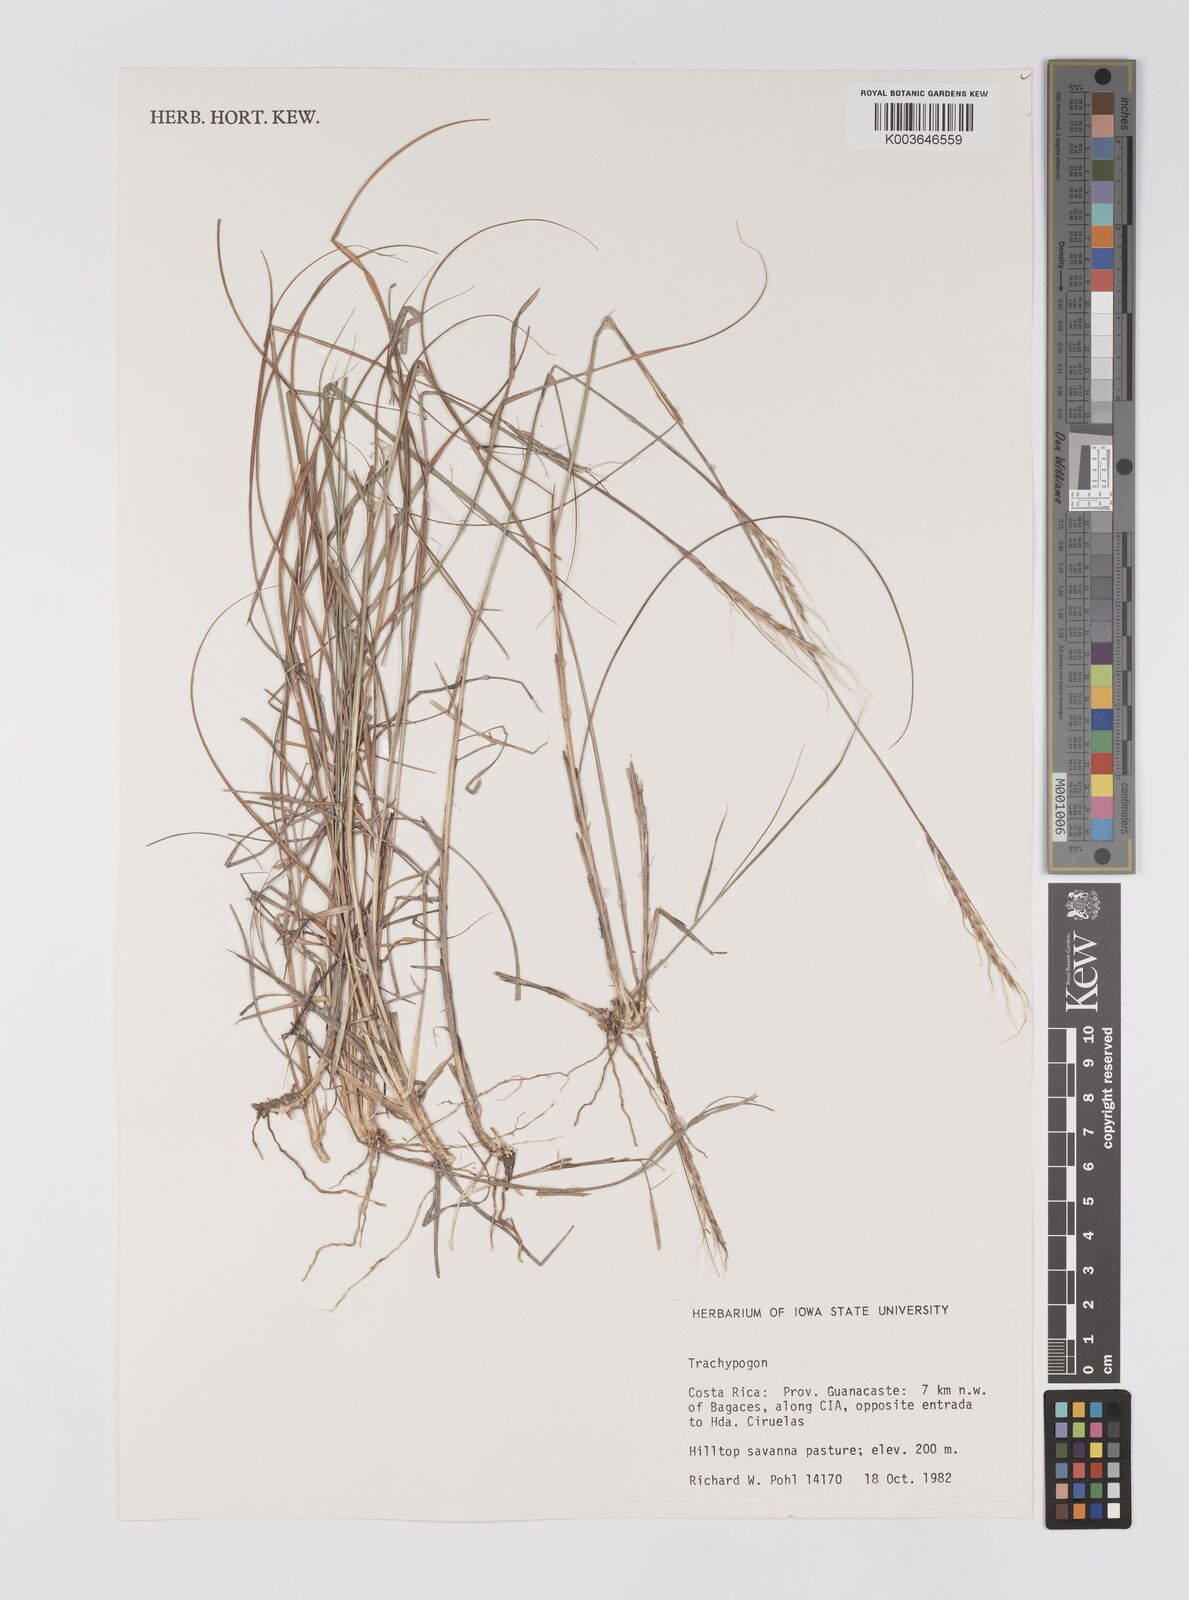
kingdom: Plantae
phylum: Tracheophyta
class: Liliopsida
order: Poales
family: Poaceae
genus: Trachypogon
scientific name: Trachypogon
